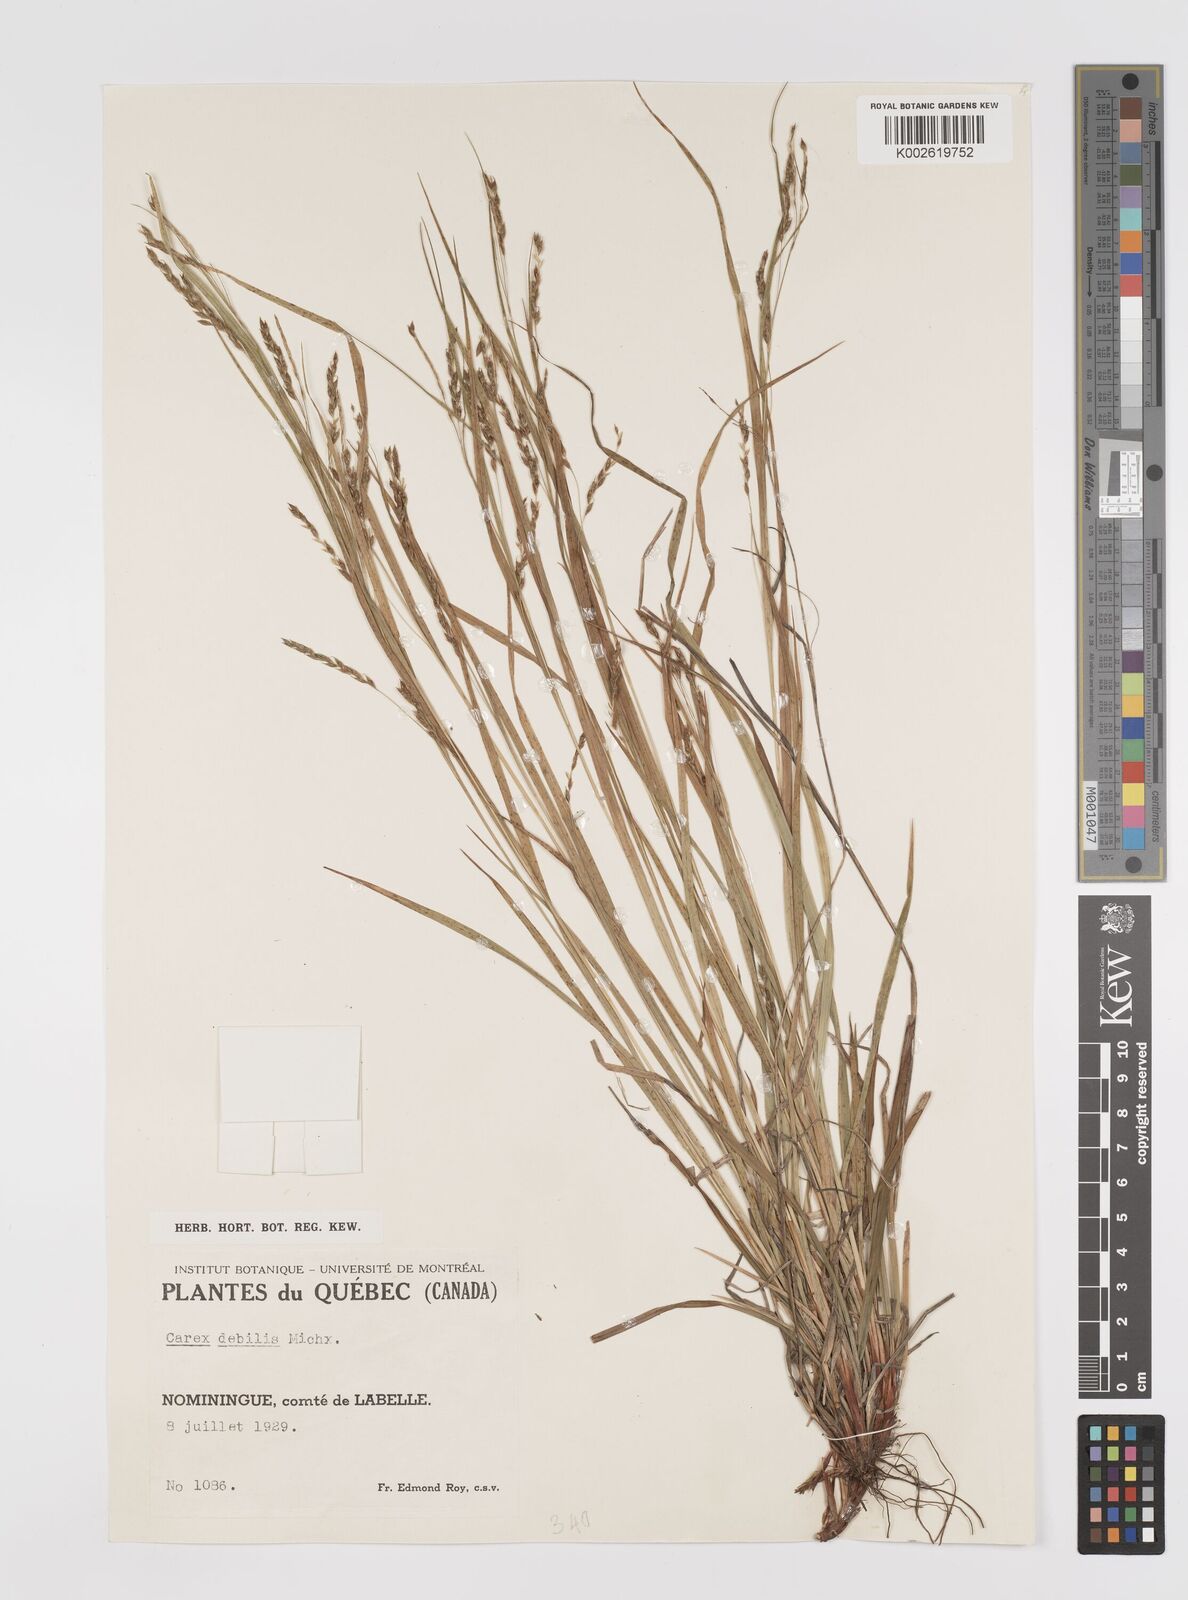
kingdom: Plantae
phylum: Tracheophyta
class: Liliopsida
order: Poales
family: Cyperaceae
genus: Carex
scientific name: Carex debilis
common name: White-edge sedge
